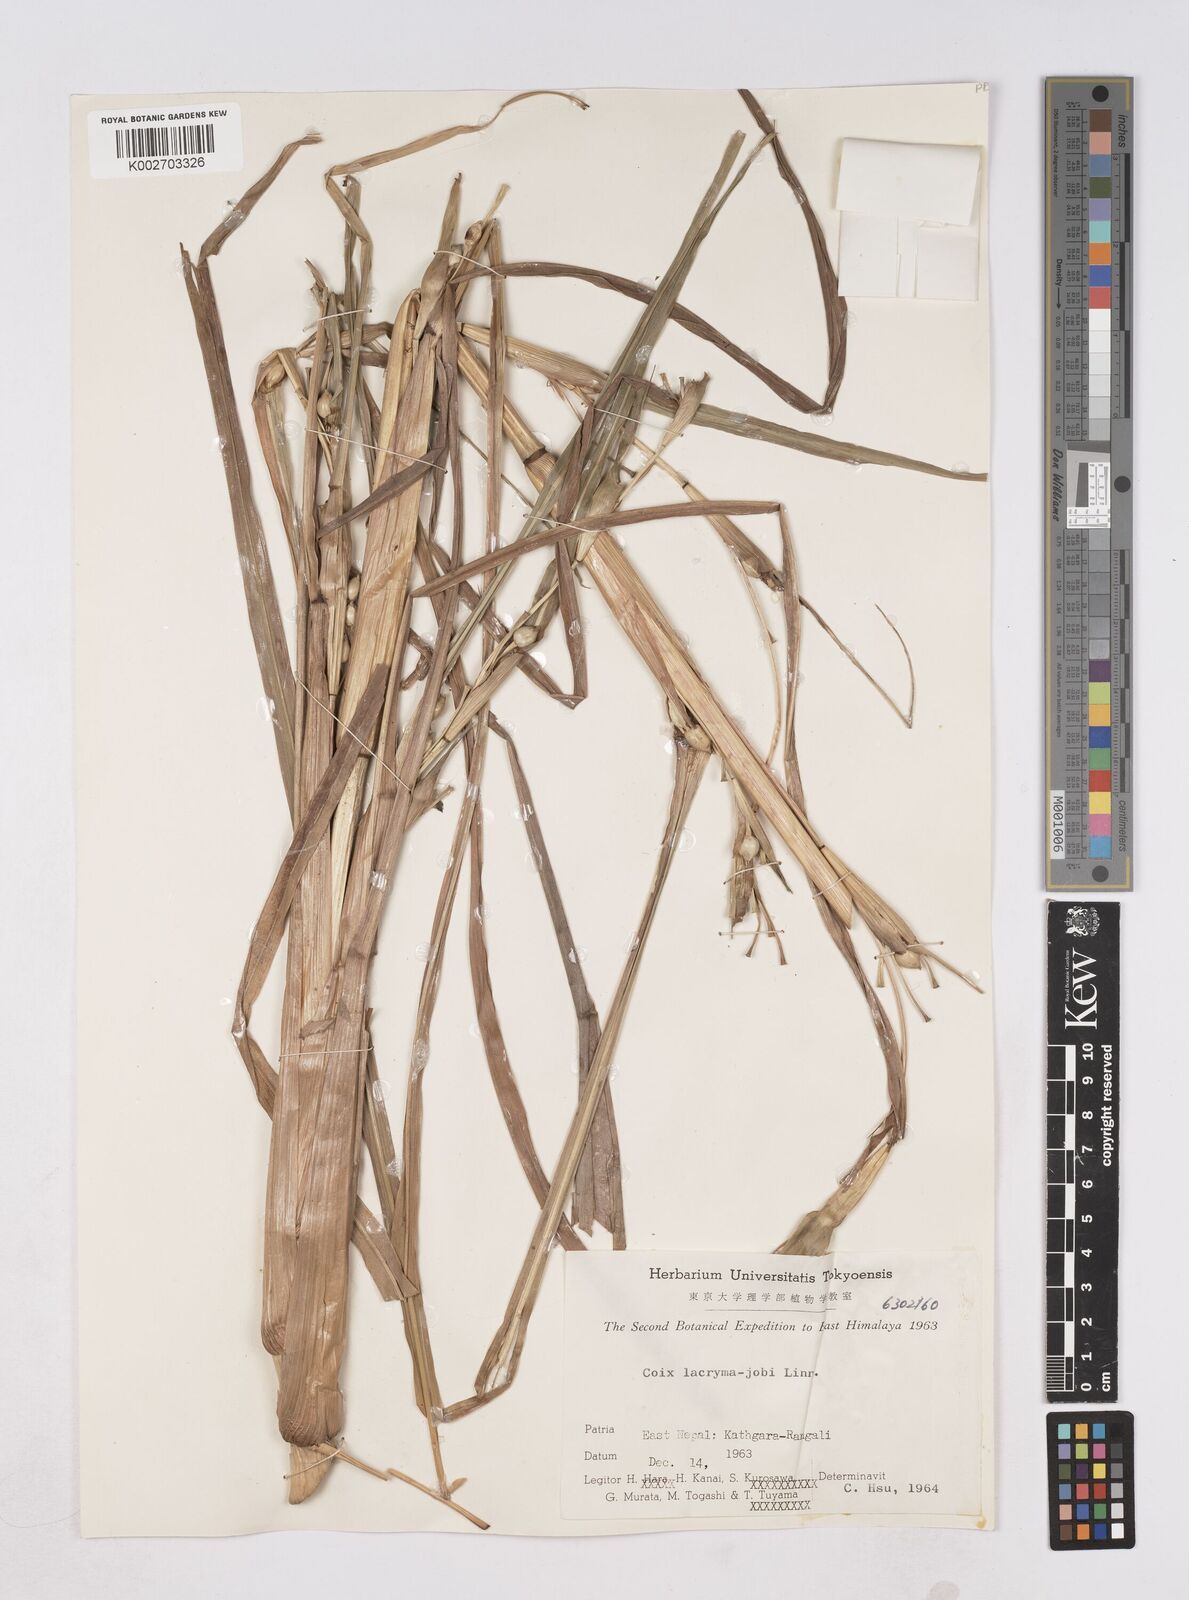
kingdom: Plantae
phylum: Tracheophyta
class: Liliopsida
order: Poales
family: Poaceae
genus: Coix
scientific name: Coix lacryma-jobi
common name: Job's tears
